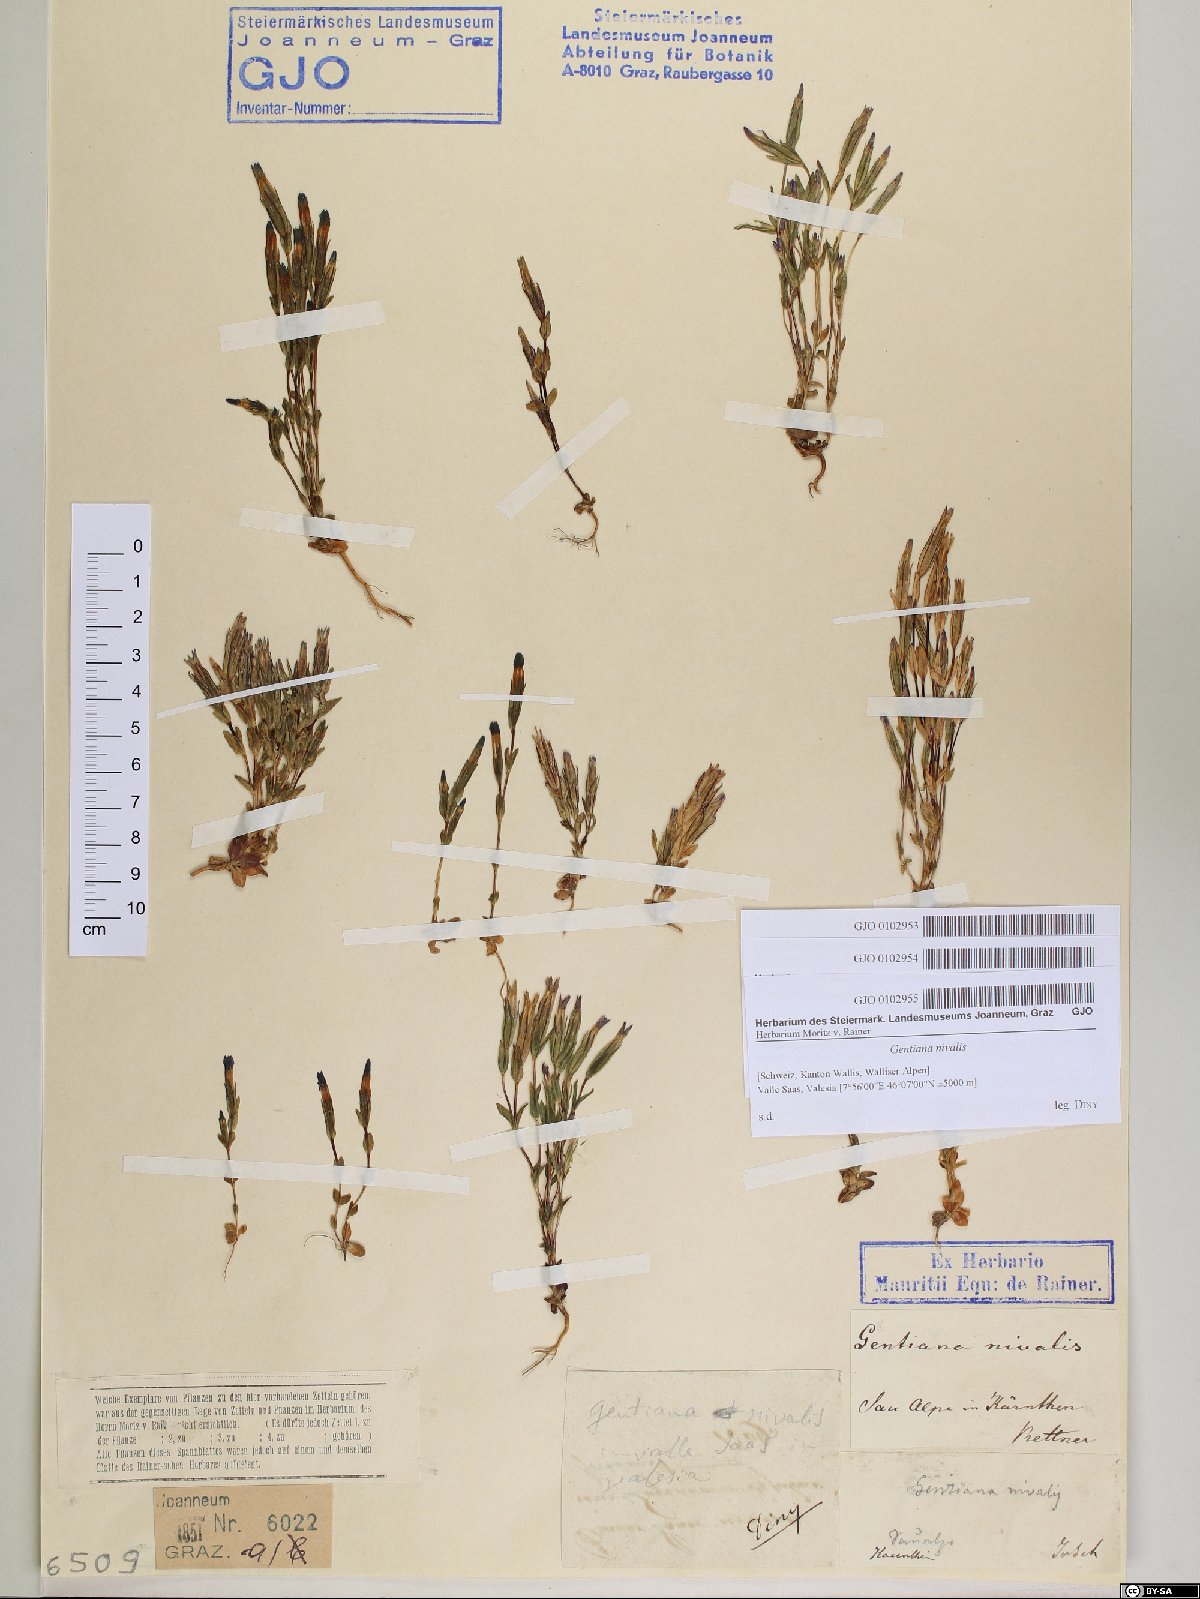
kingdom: Plantae
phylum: Tracheophyta
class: Magnoliopsida
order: Gentianales
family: Gentianaceae
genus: Gentiana
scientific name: Gentiana nivalis
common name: Alpine gentian
